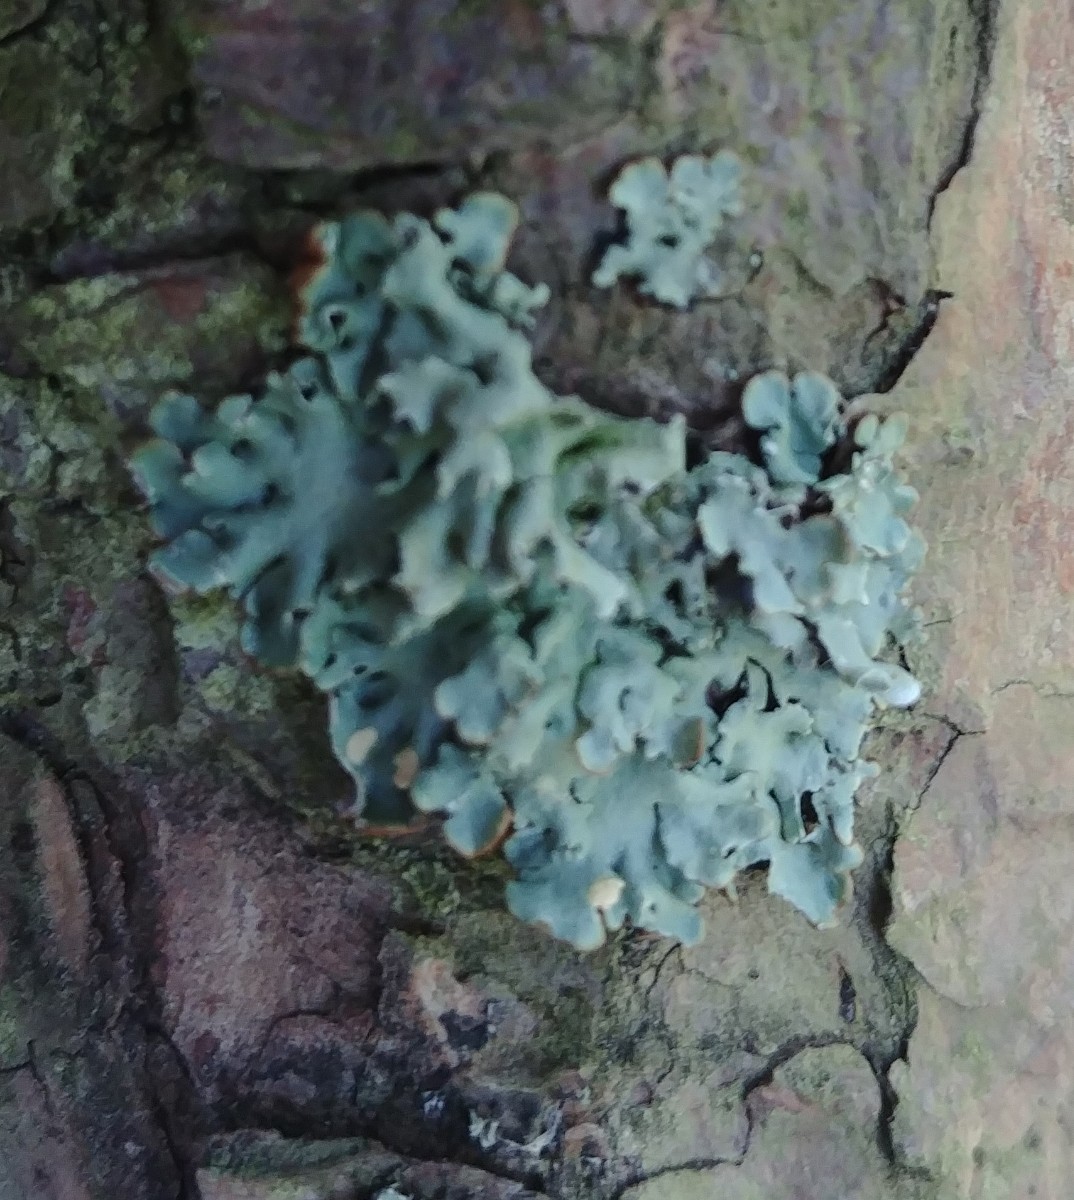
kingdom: Fungi
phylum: Ascomycota
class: Lecanoromycetes
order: Lecanorales
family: Parmeliaceae
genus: Hypogymnia
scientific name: Hypogymnia physodes
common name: almindelig kvistlav
